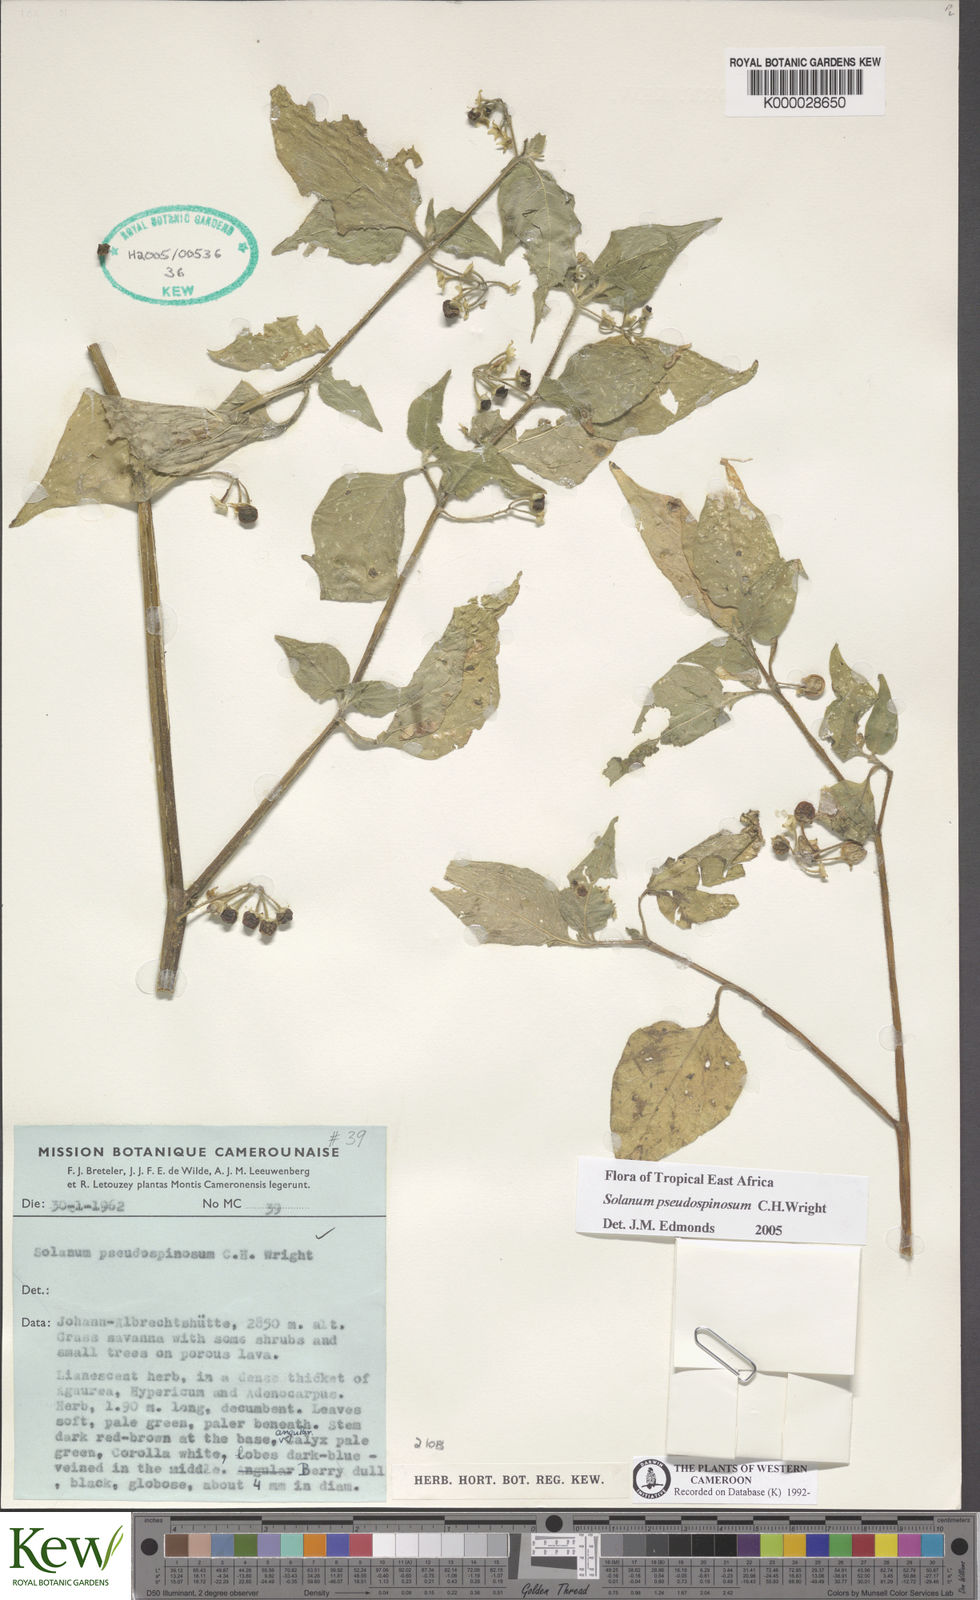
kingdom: Plantae
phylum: Tracheophyta
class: Magnoliopsida
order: Solanales
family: Solanaceae
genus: Solanum
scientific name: Solanum pseudospinosum
